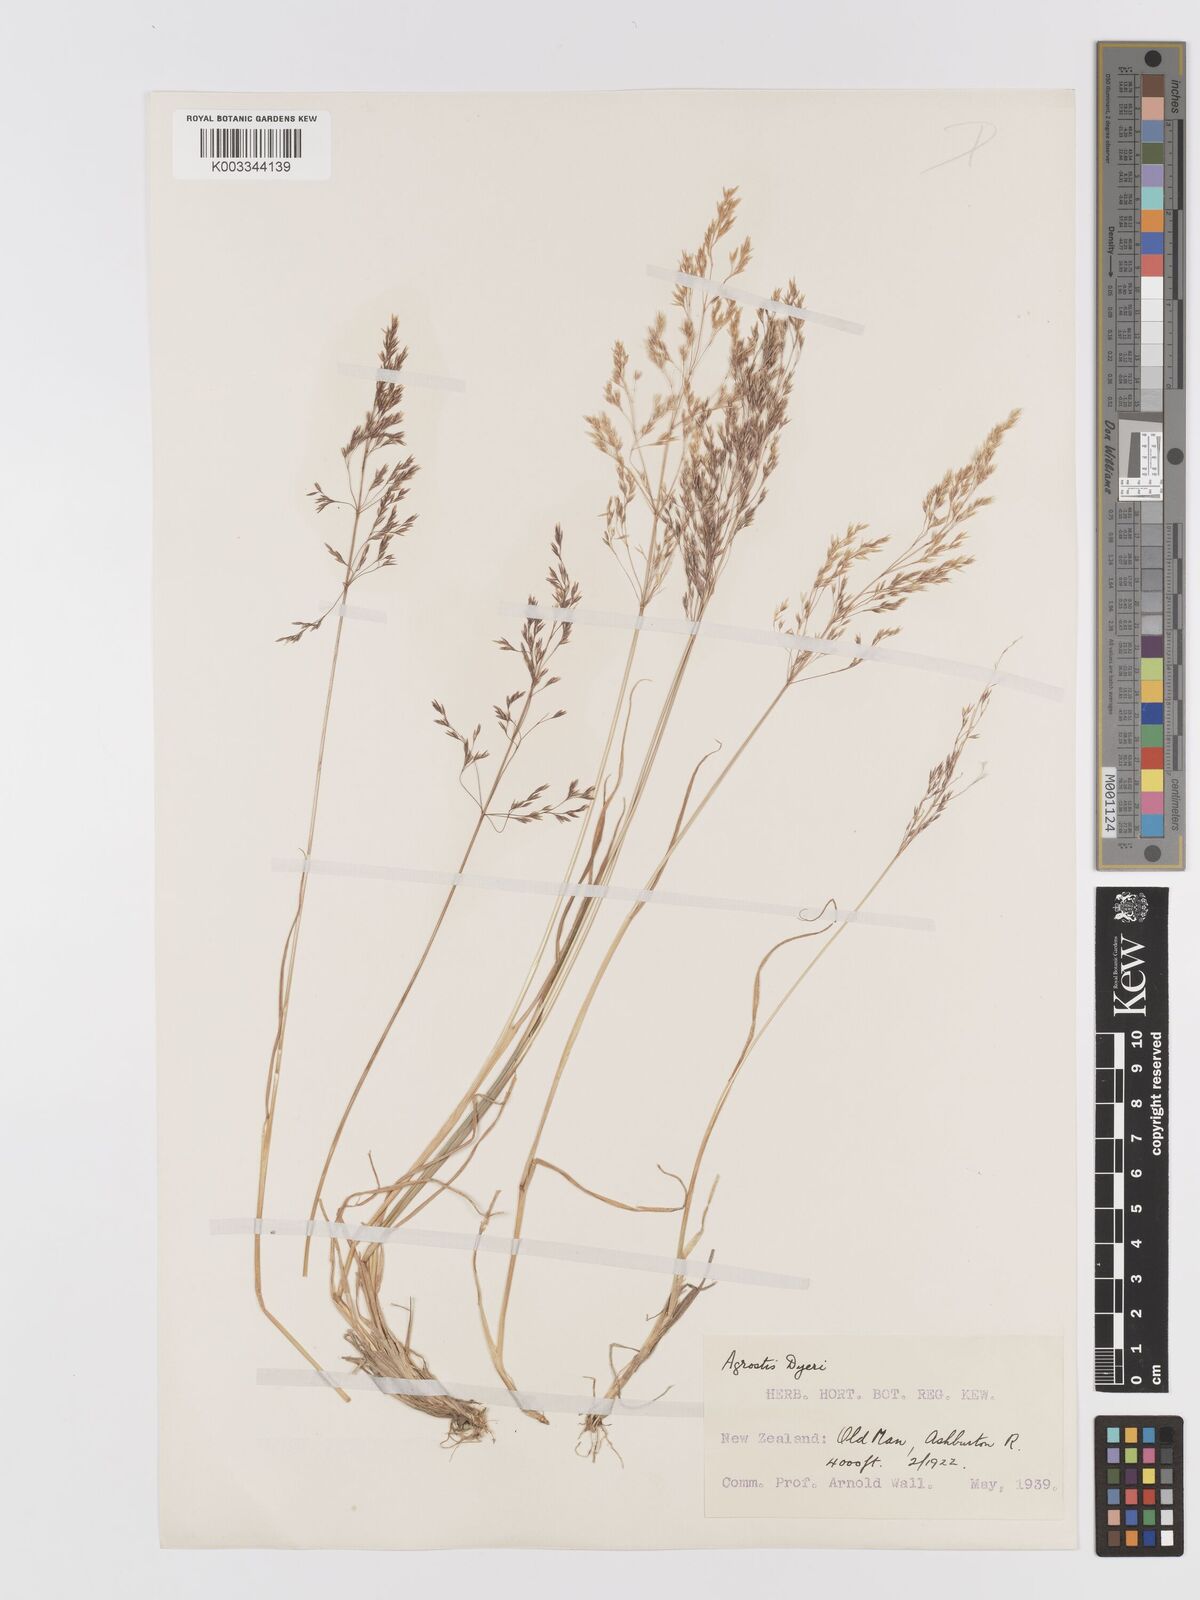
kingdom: Plantae
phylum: Tracheophyta
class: Liliopsida
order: Poales
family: Poaceae
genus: Agrostis
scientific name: Agrostis dyeri
